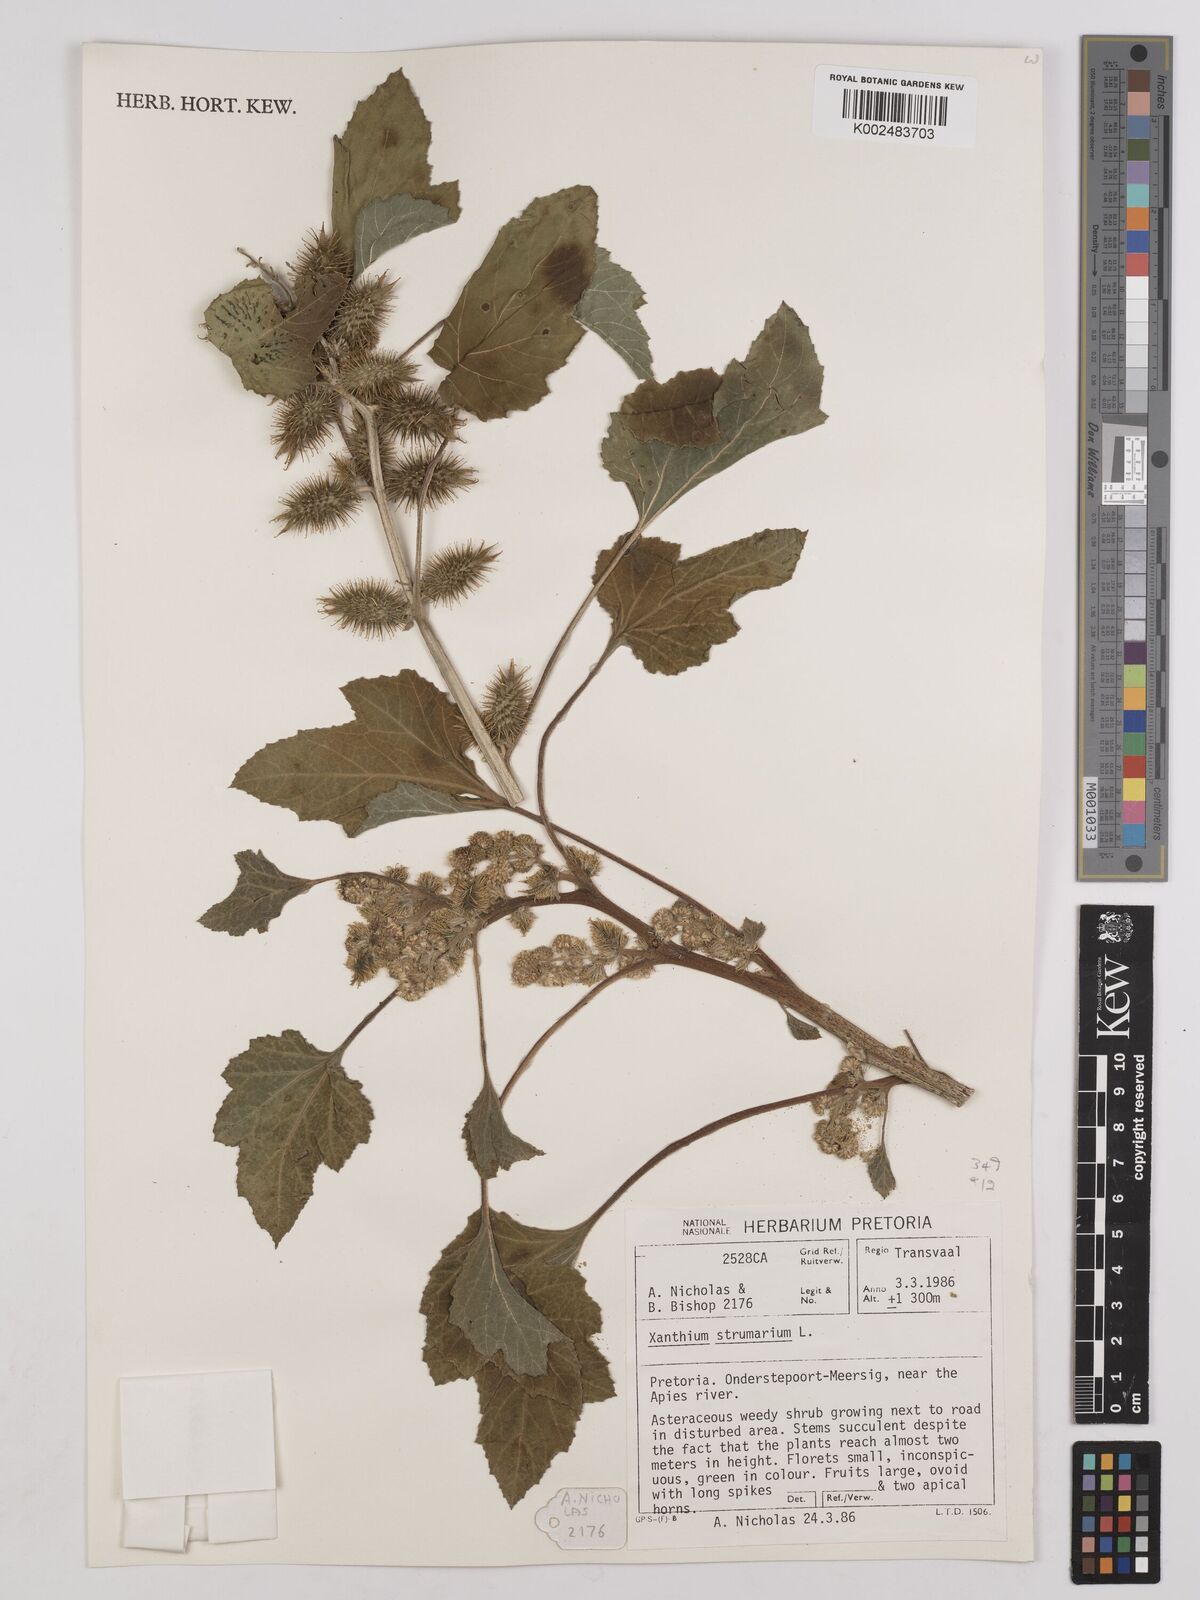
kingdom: Plantae
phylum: Tracheophyta
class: Magnoliopsida
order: Asterales
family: Asteraceae
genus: Xanthium
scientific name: Xanthium strumarium
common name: Rough cocklebur
